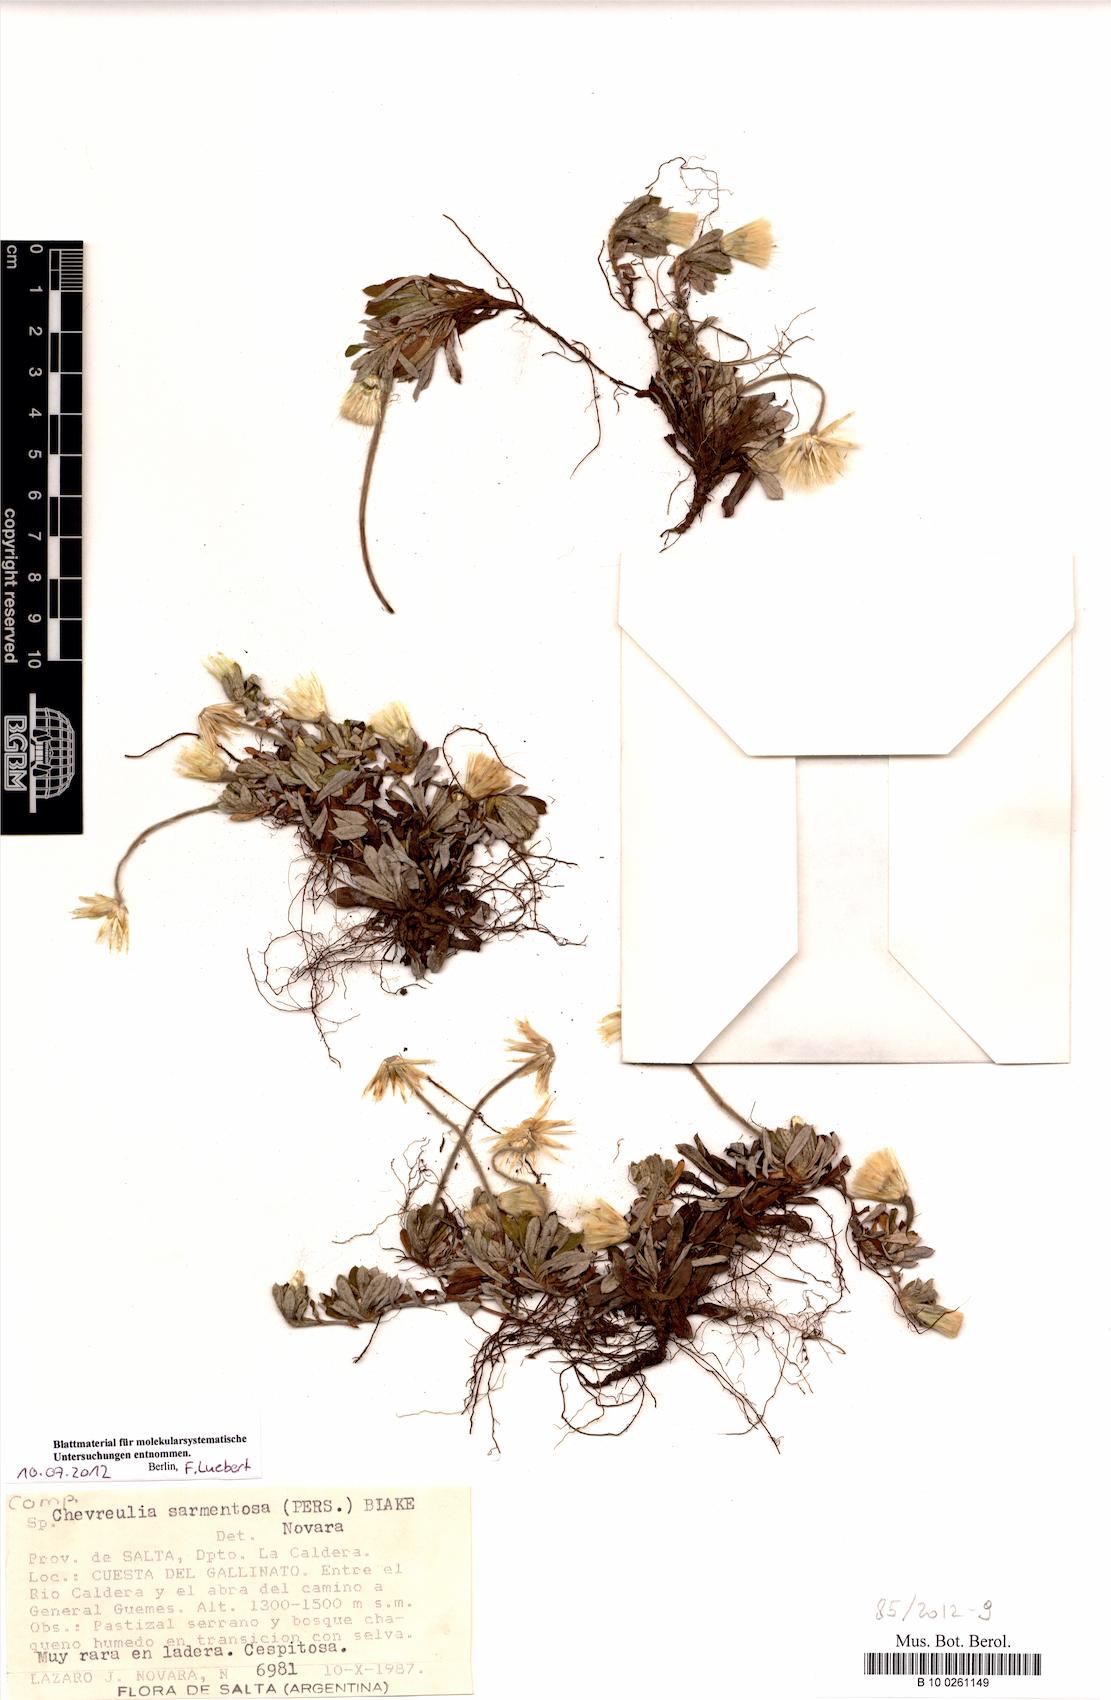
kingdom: Plantae
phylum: Tracheophyta
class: Magnoliopsida
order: Asterales
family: Asteraceae
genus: Chevreulia
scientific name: Chevreulia sarmentosa
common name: Sunflower
